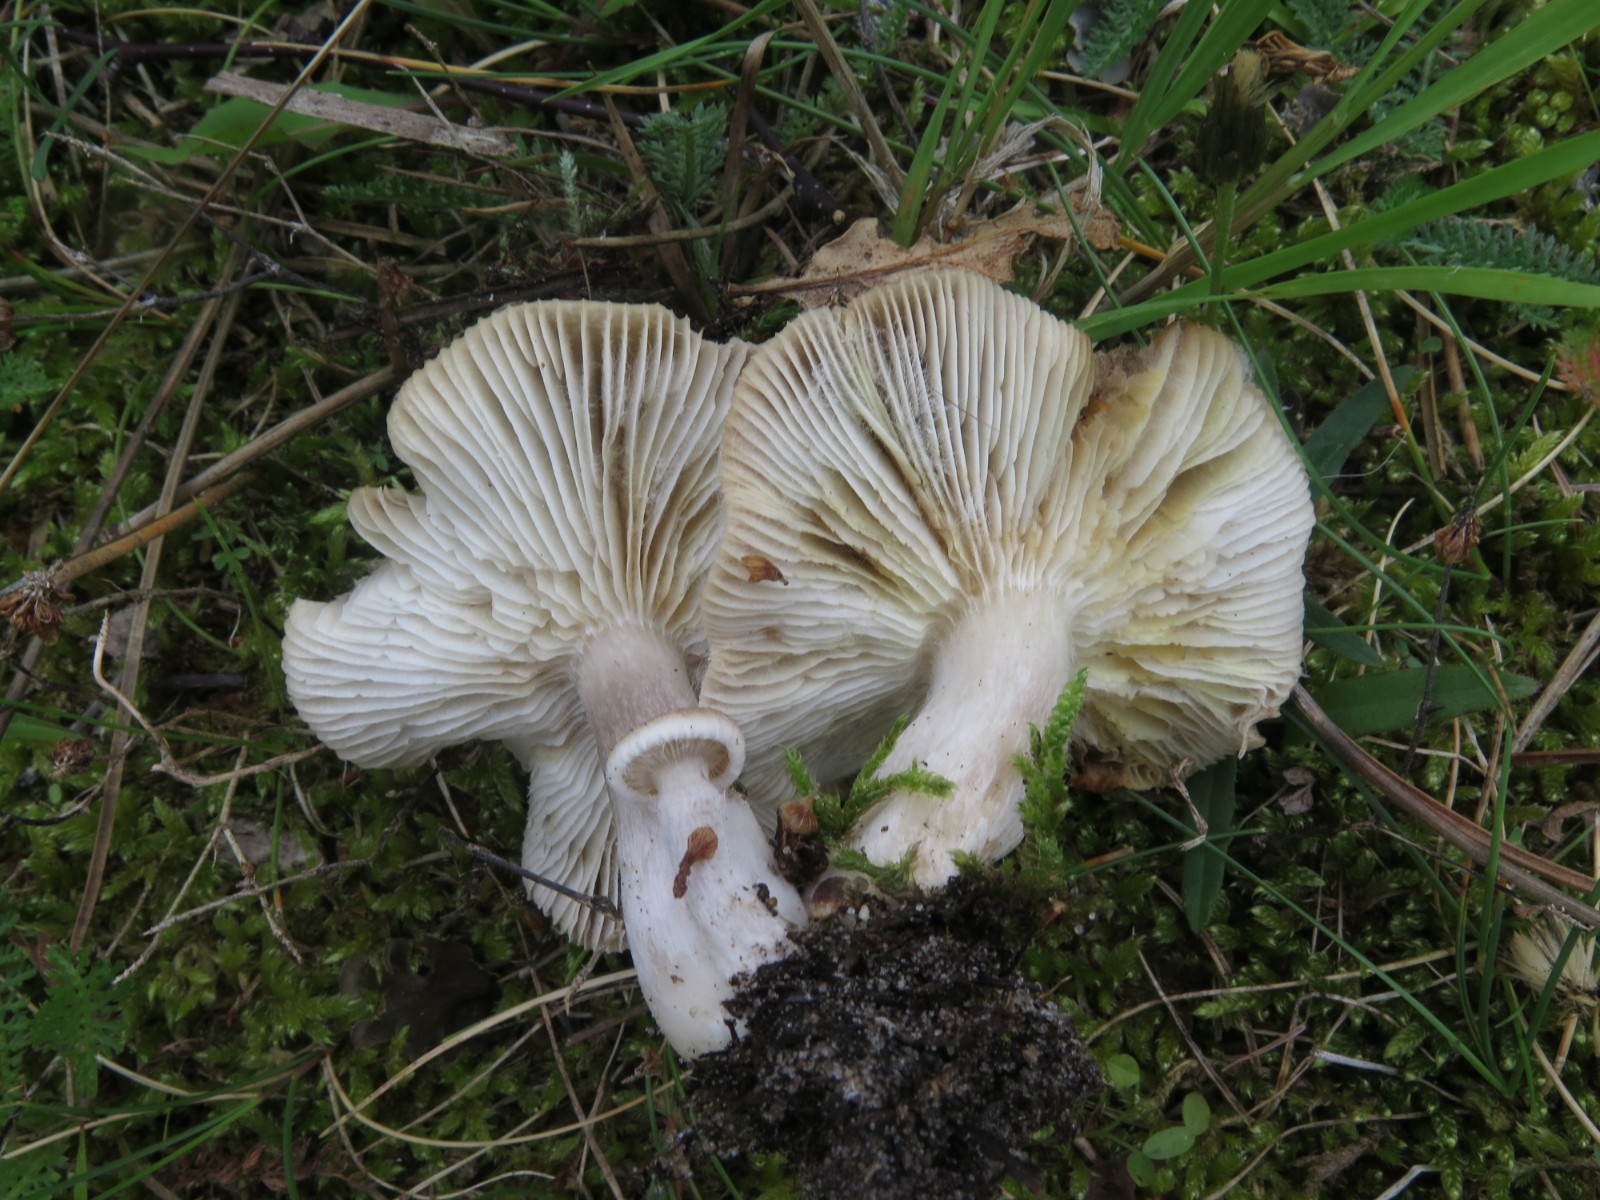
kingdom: Fungi
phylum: Basidiomycota
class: Agaricomycetes
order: Agaricales
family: Tricholomataceae
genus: Tricholoma
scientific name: Tricholoma scalpturatum
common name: gulplettet ridderhat
